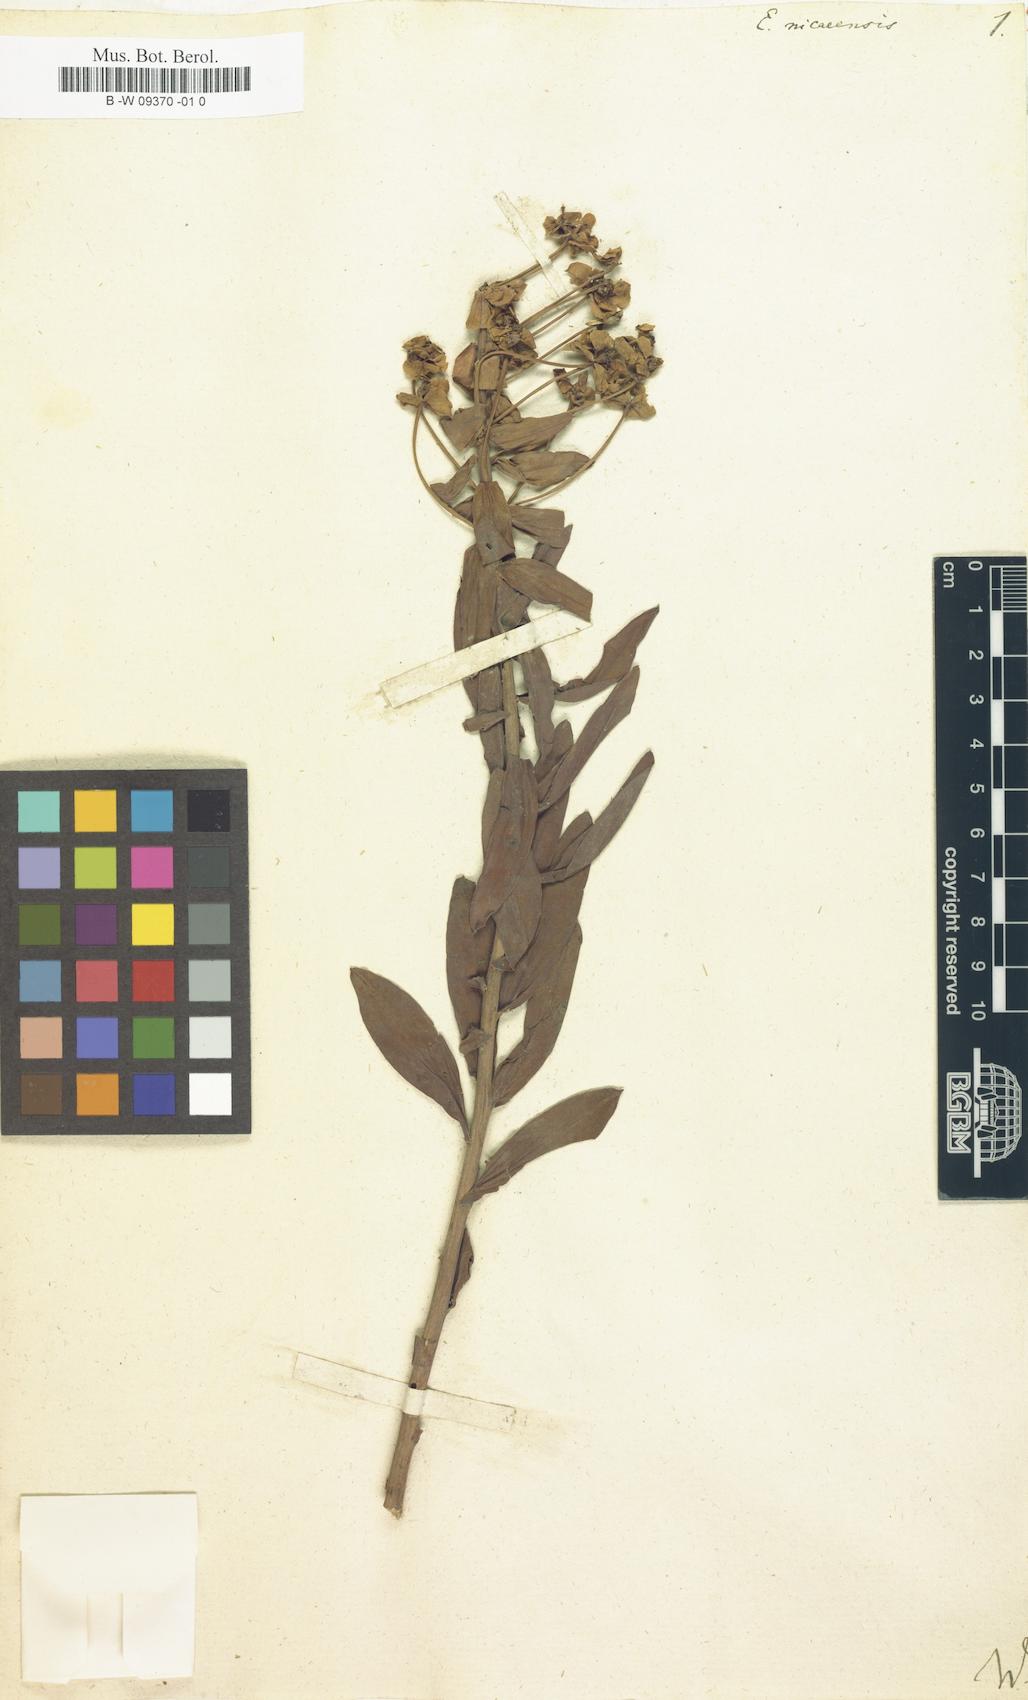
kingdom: Plantae
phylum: Tracheophyta
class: Magnoliopsida
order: Malpighiales
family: Euphorbiaceae
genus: Euphorbia
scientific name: Euphorbia nicaeensis
